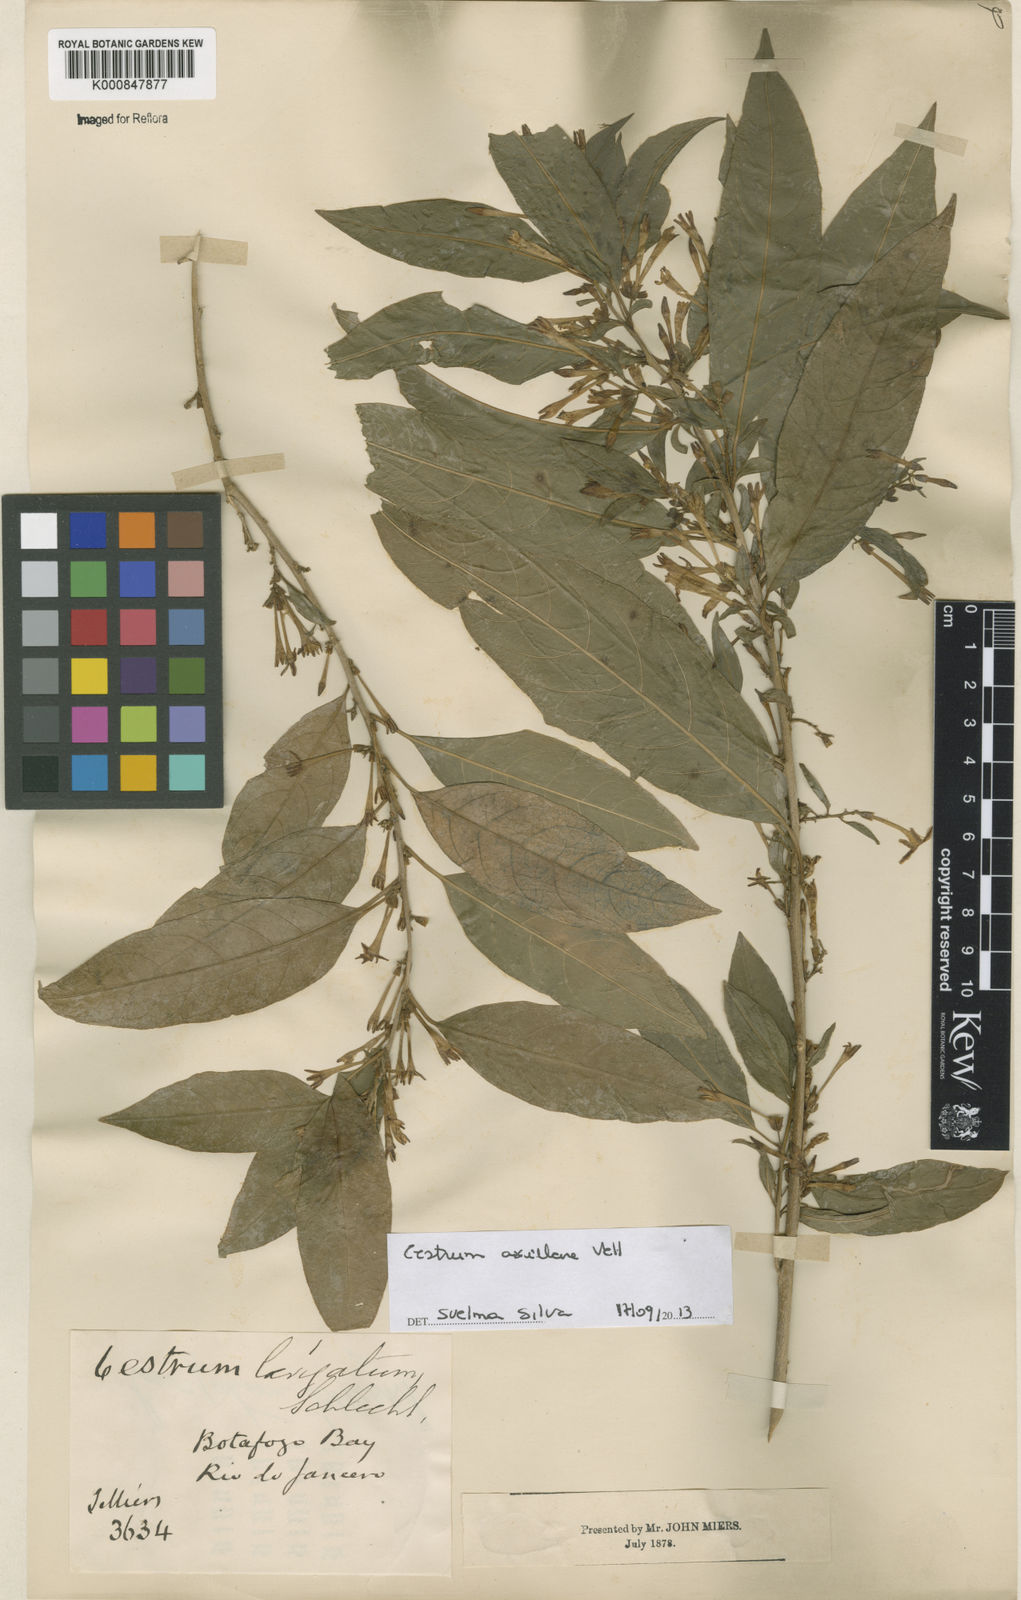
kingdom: Plantae
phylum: Tracheophyta
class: Magnoliopsida
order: Solanales
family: Solanaceae
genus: Cestrum
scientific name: Cestrum laevigatum
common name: Inkberry
